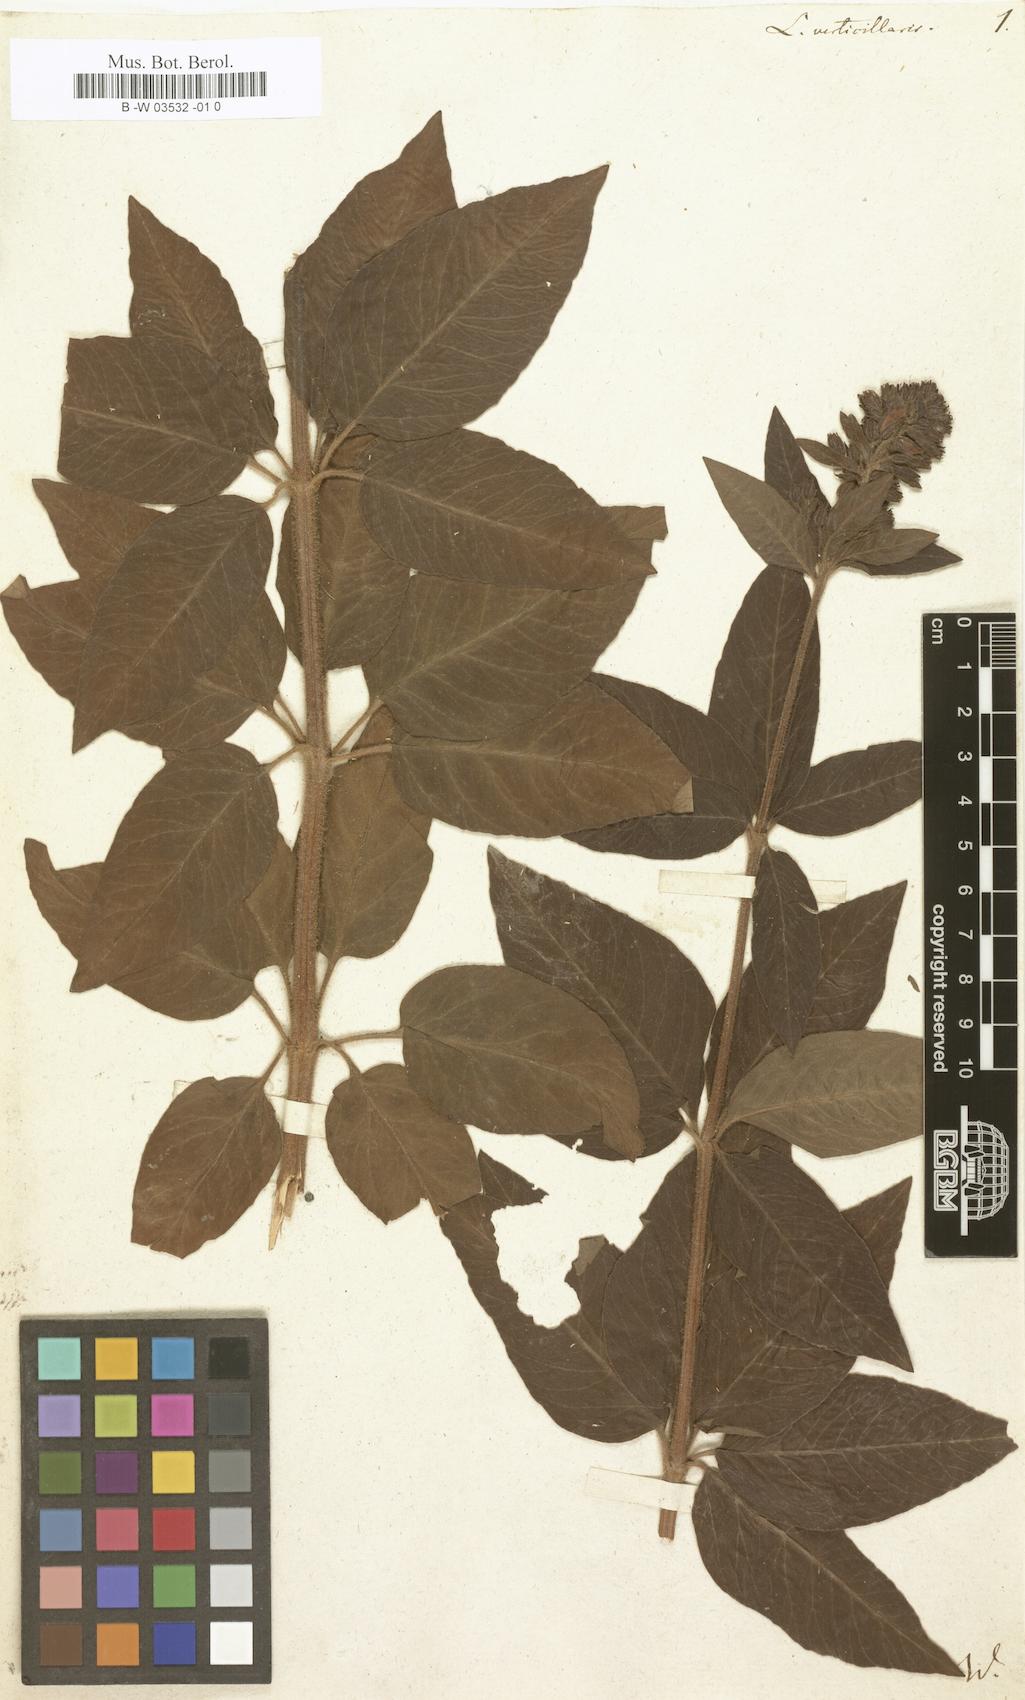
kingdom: Plantae
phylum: Tracheophyta
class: Magnoliopsida
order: Ericales
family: Primulaceae
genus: Lysimachia
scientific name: Lysimachia verticillaris
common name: Yellow loosestrife
